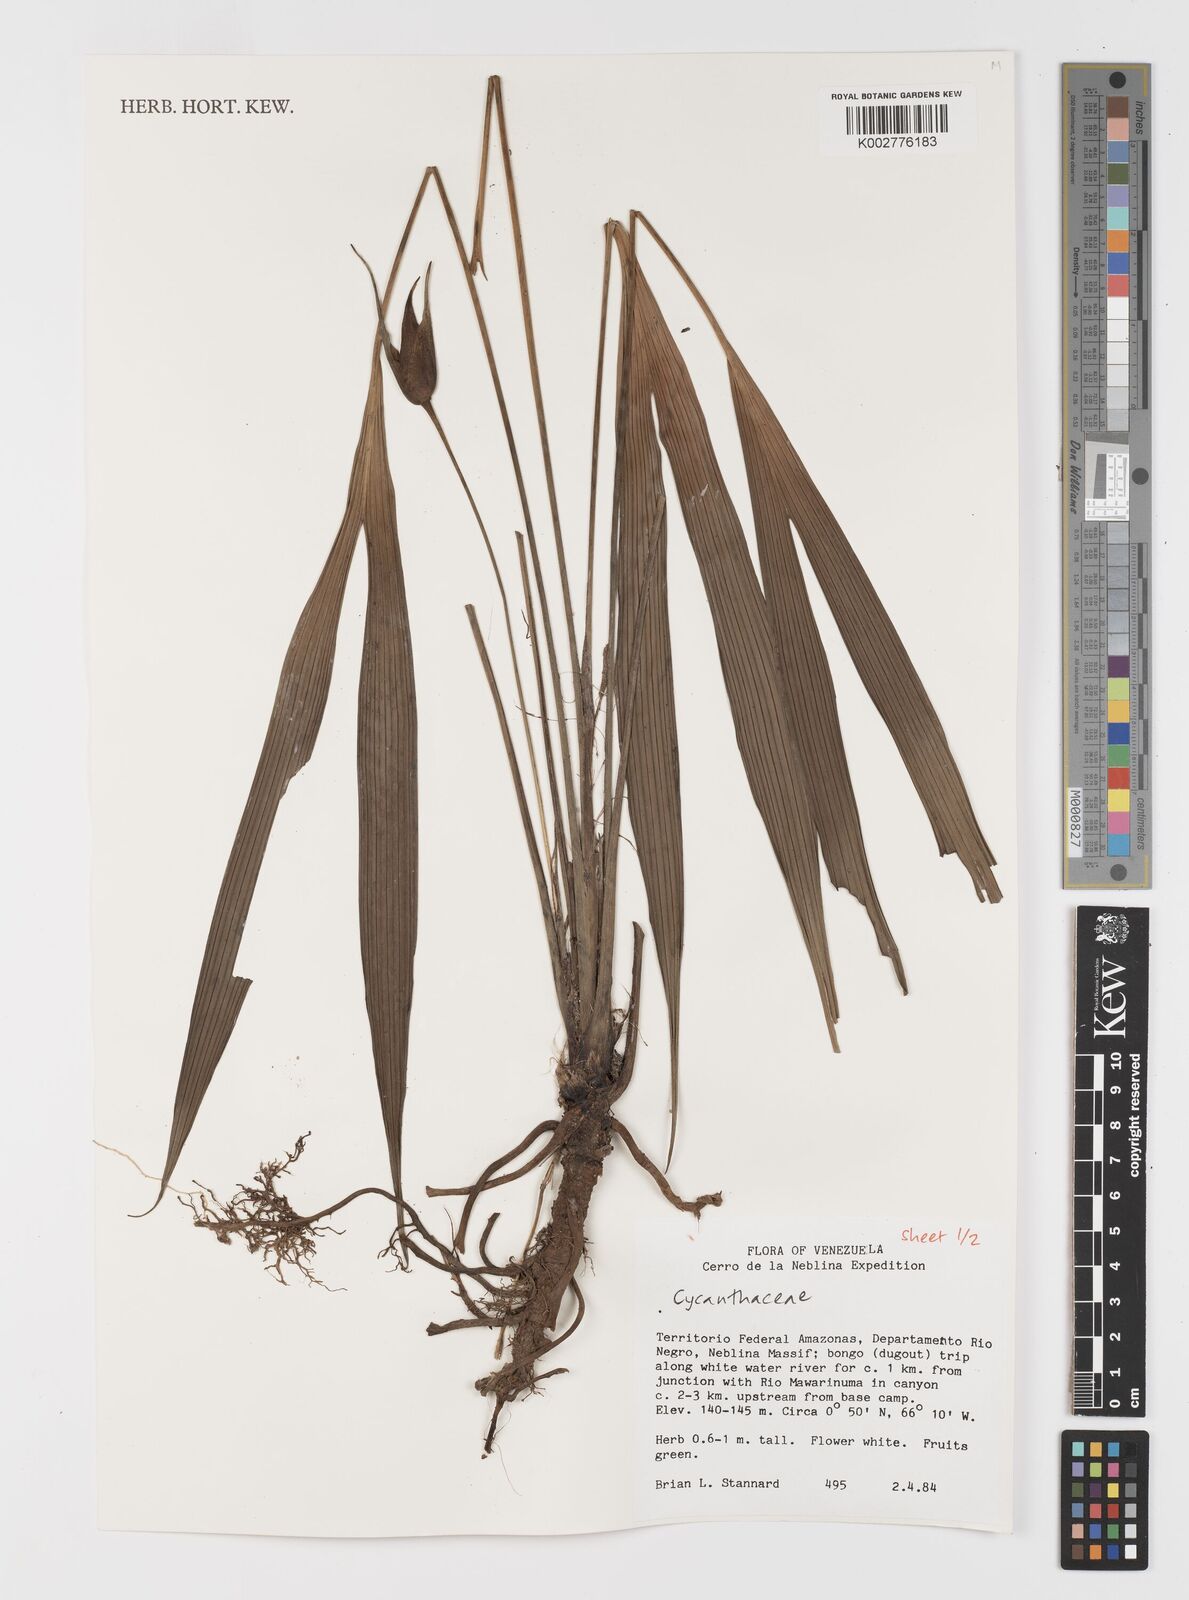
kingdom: Plantae
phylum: Tracheophyta
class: Liliopsida
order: Pandanales
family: Cyclanthaceae
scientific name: Cyclanthaceae
